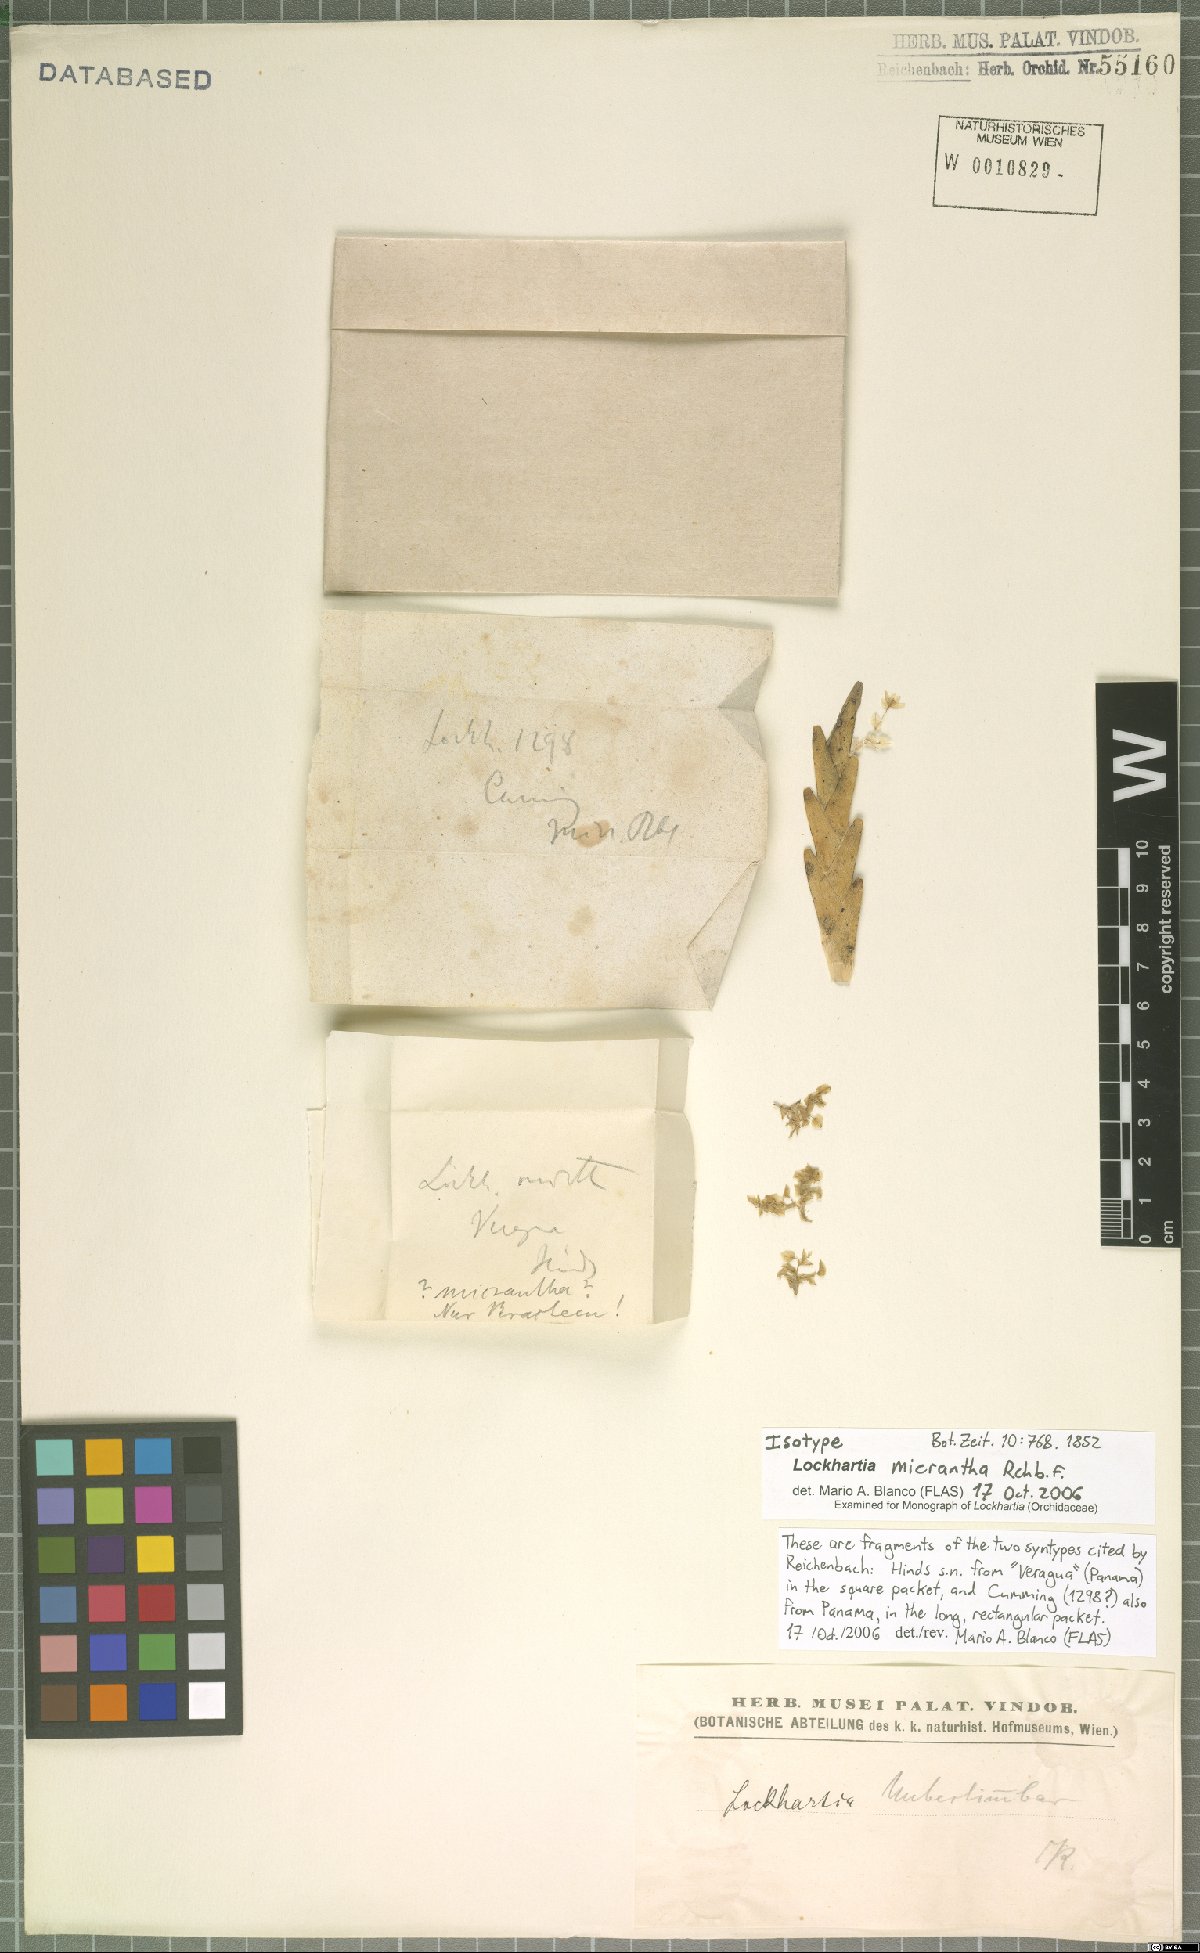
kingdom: Plantae
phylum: Tracheophyta
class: Liliopsida
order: Asparagales
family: Orchidaceae
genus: Lockhartia
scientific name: Lockhartia micrantha
